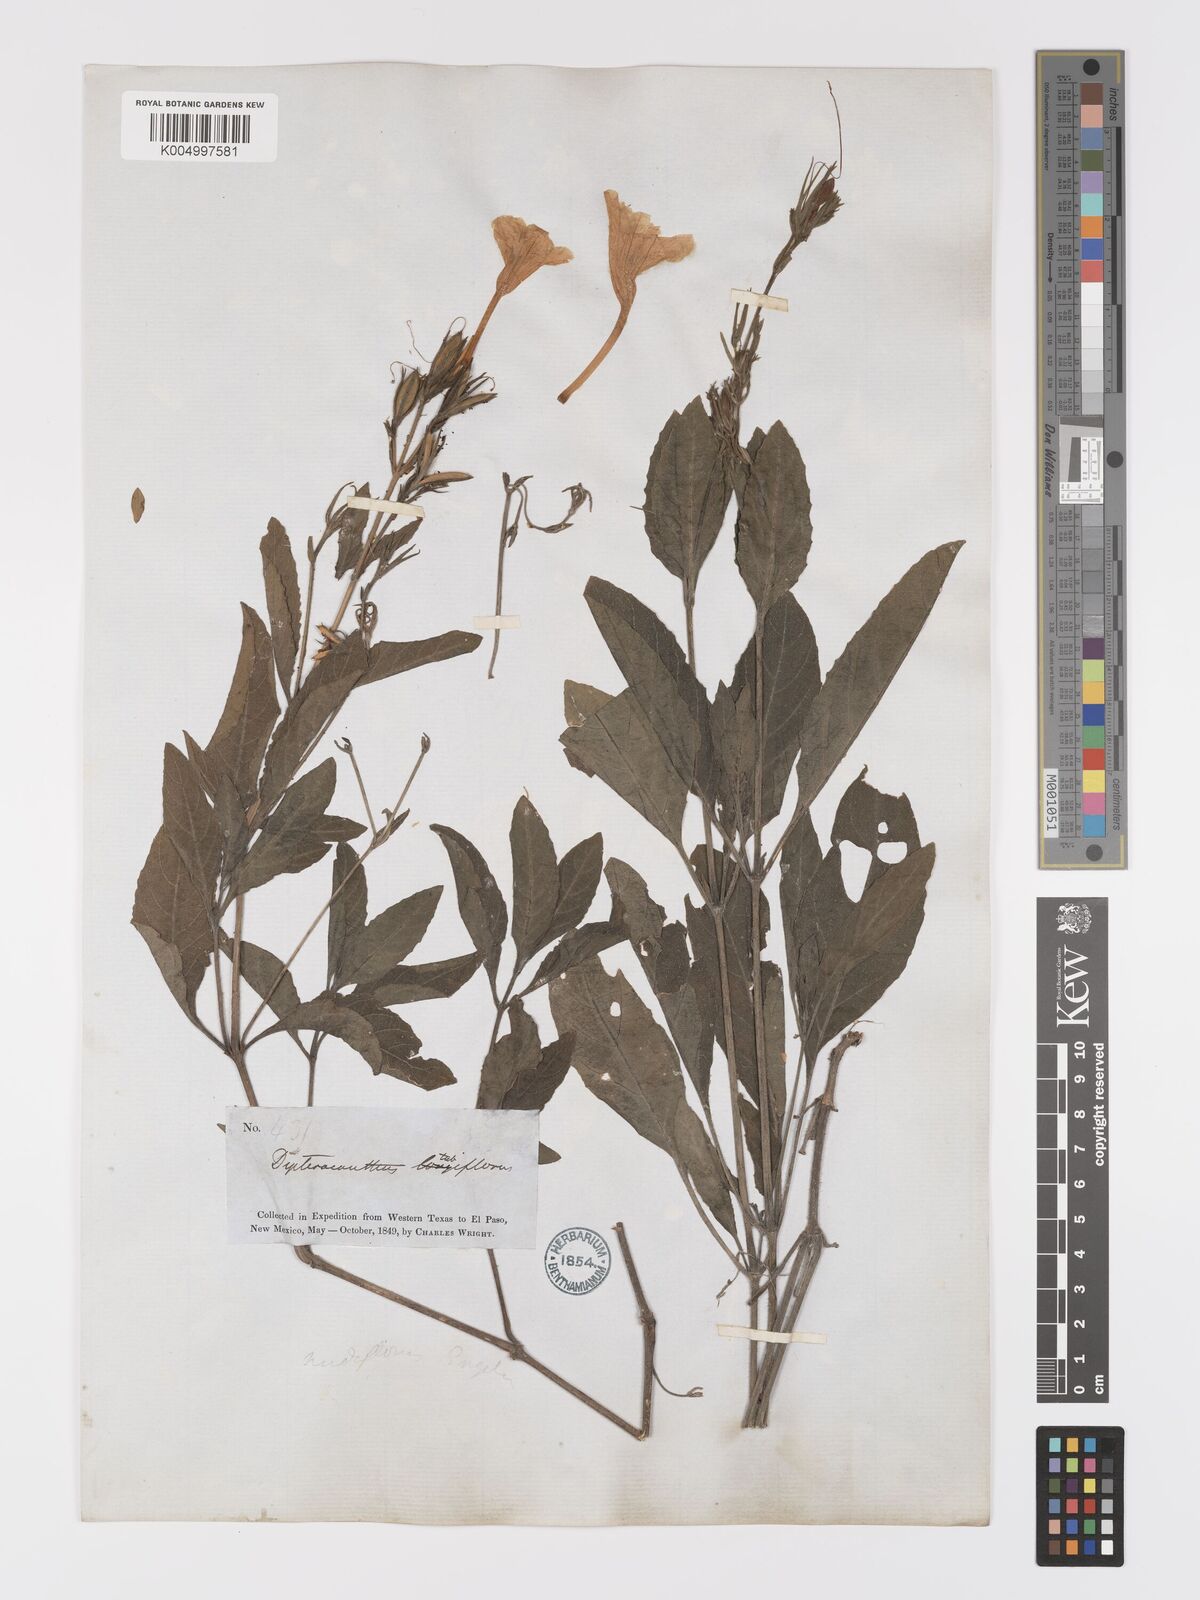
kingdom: Plantae
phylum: Tracheophyta
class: Magnoliopsida
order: Lamiales
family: Acanthaceae
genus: Ruellia
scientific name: Ruellia tuberosa
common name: Devil's bit
